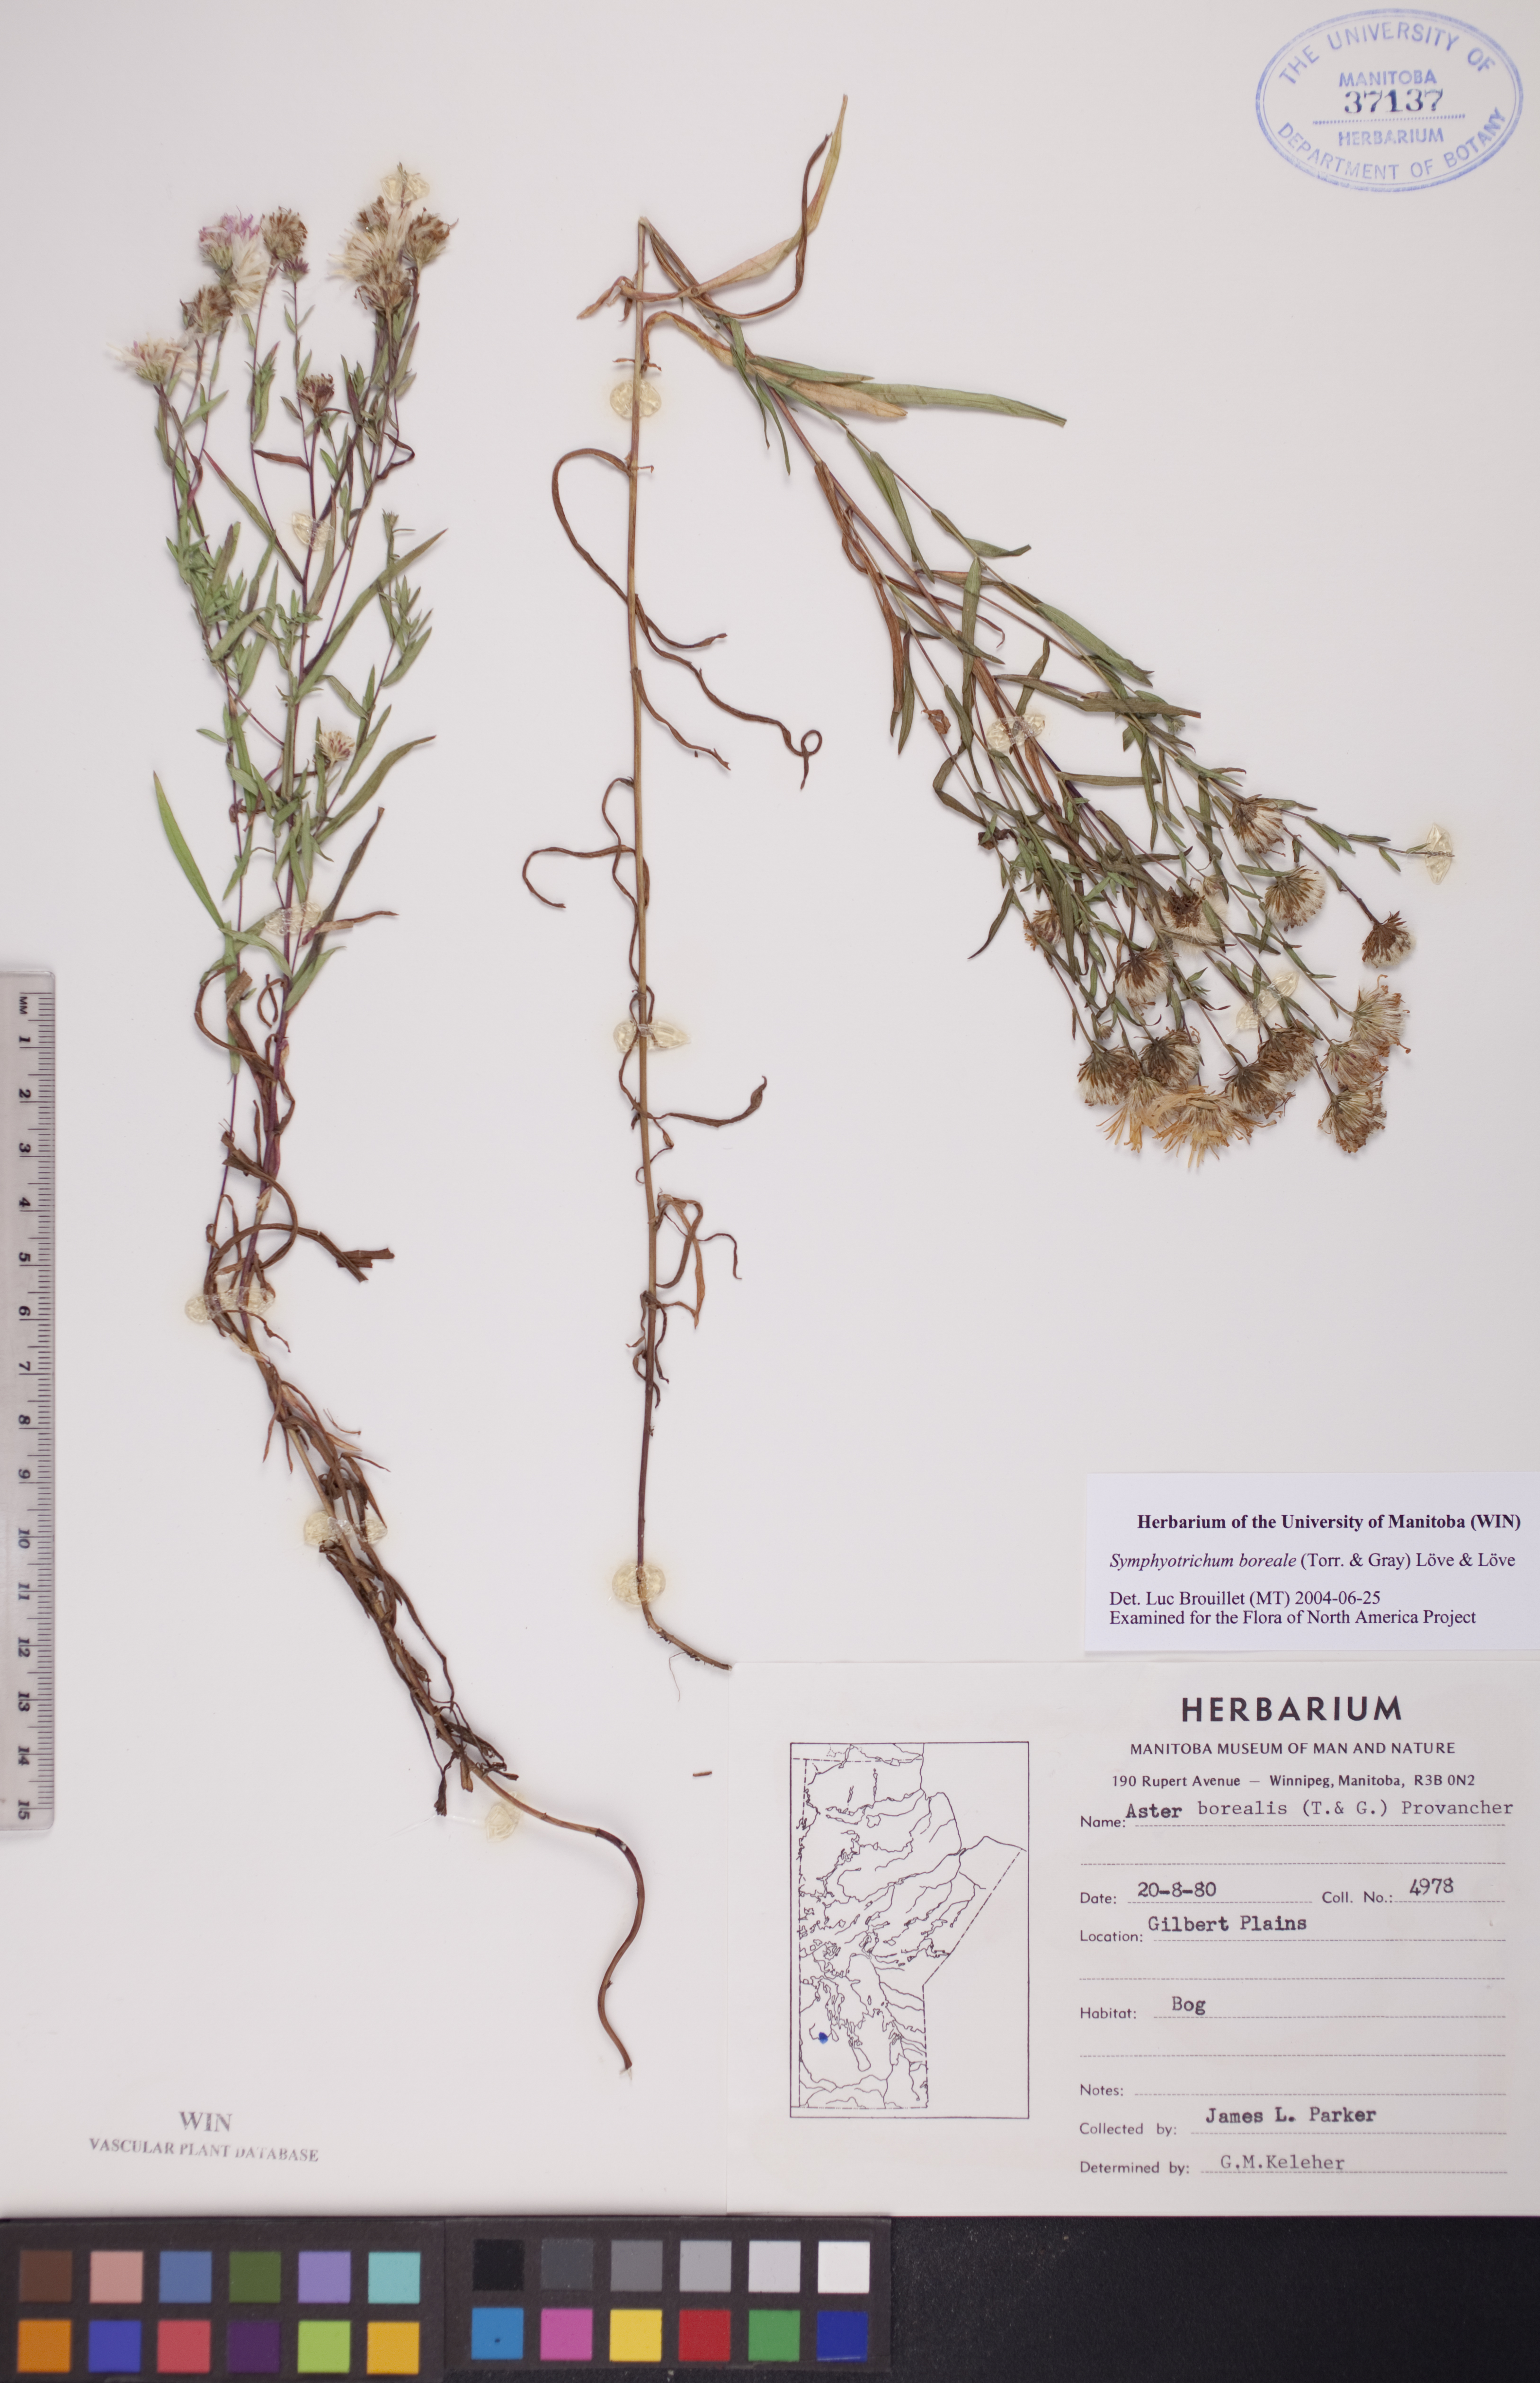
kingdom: Plantae
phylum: Tracheophyta
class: Magnoliopsida
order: Asterales
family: Asteraceae
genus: Symphyotrichum
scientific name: Symphyotrichum boreale
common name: Northern bog aster
